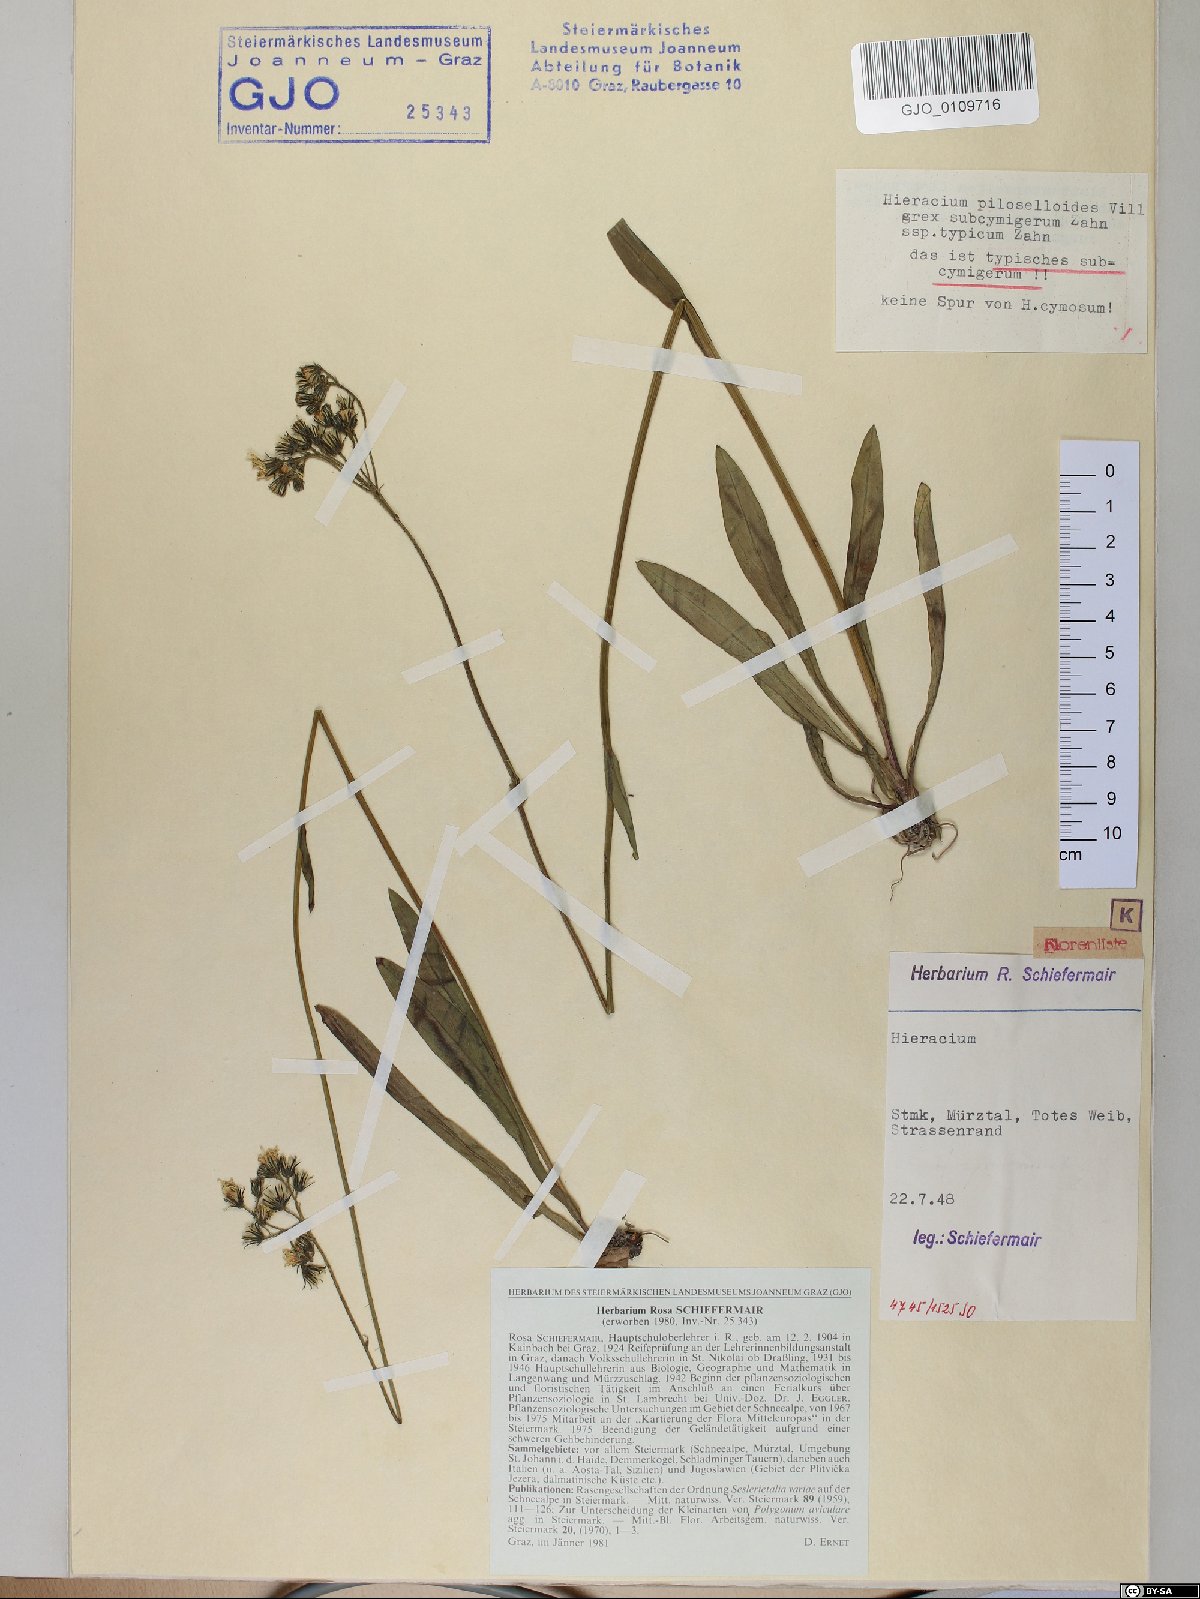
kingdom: Plantae
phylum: Tracheophyta
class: Magnoliopsida
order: Asterales
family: Asteraceae
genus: Pilosella
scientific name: Pilosella piloselloides
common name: Glaucous king-devil
